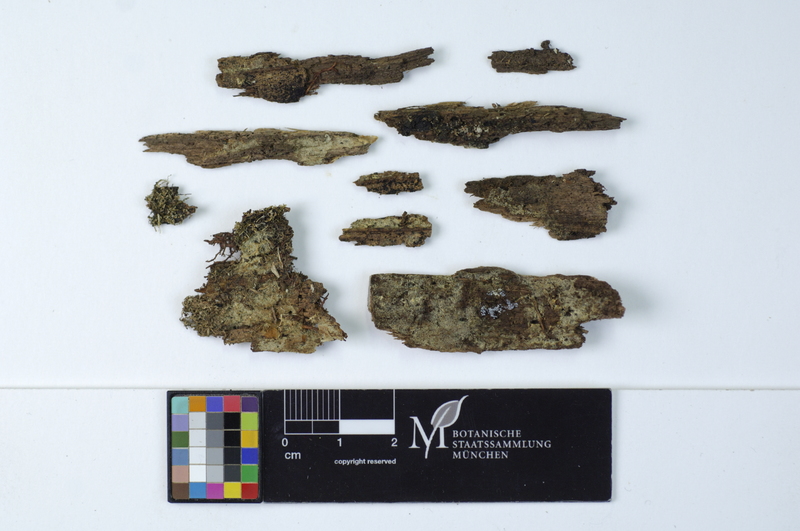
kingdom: Plantae
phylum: Tracheophyta
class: Magnoliopsida
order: Fagales
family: Betulaceae
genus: Betula
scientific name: Betula
